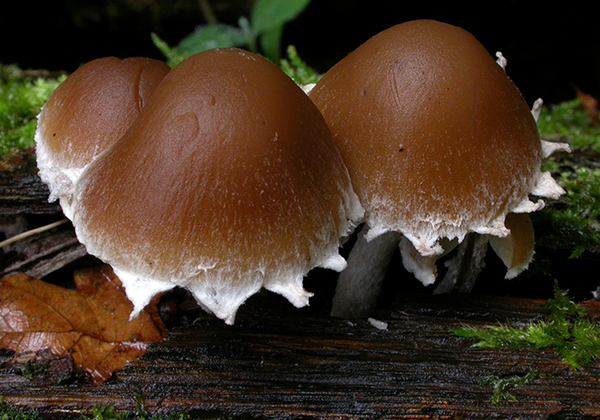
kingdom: Fungi
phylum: Basidiomycota
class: Agaricomycetes
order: Agaricales
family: Psathyrellaceae
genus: Psathyrella
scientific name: Psathyrella spintrigeroides
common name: tandet mørkhat
